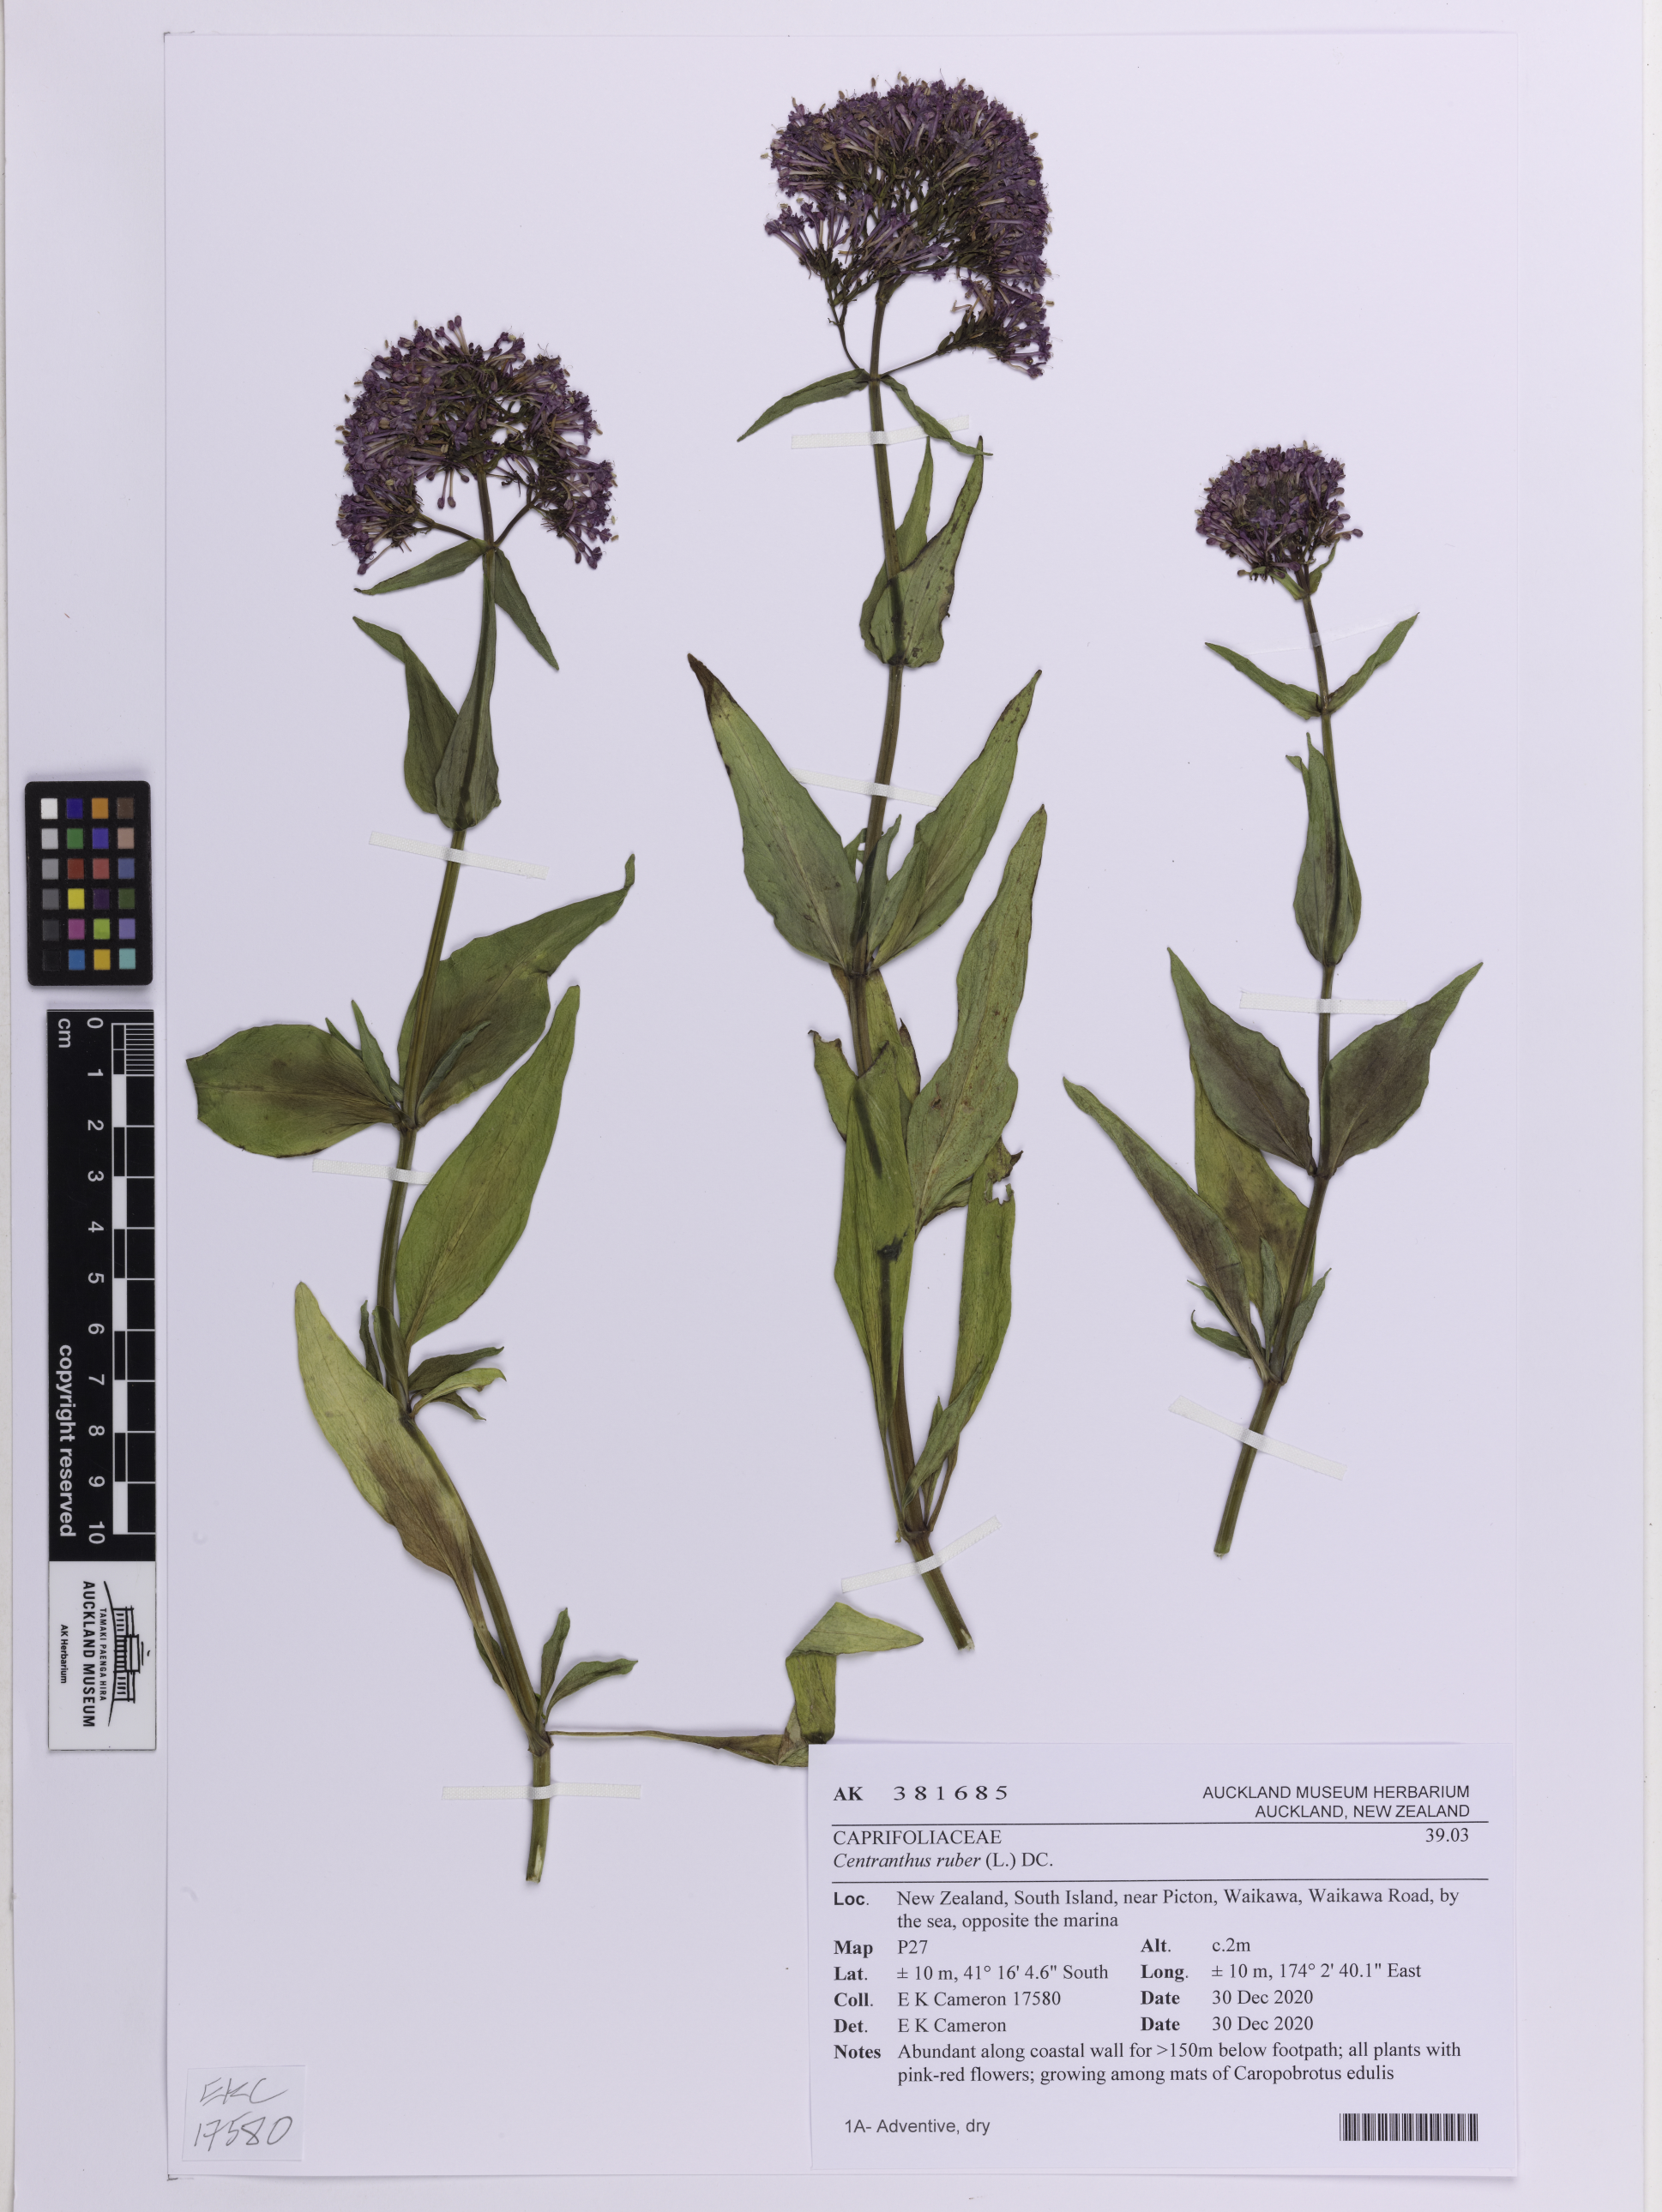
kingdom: Plantae
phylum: Tracheophyta
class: Magnoliopsida
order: Dipsacales
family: Caprifoliaceae
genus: Centranthus
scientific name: Centranthus ruber
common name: Red valerian
